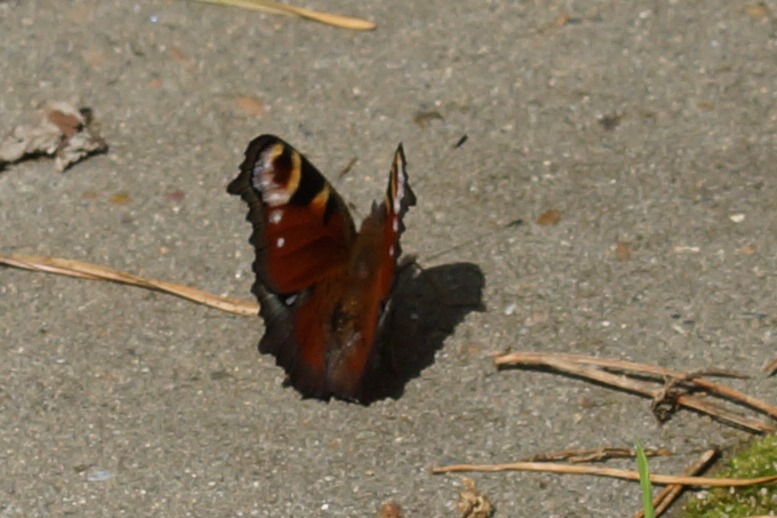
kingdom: Animalia
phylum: Arthropoda
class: Insecta
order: Lepidoptera
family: Nymphalidae
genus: Aglais
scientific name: Aglais io
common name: Dagpåfugleøje
